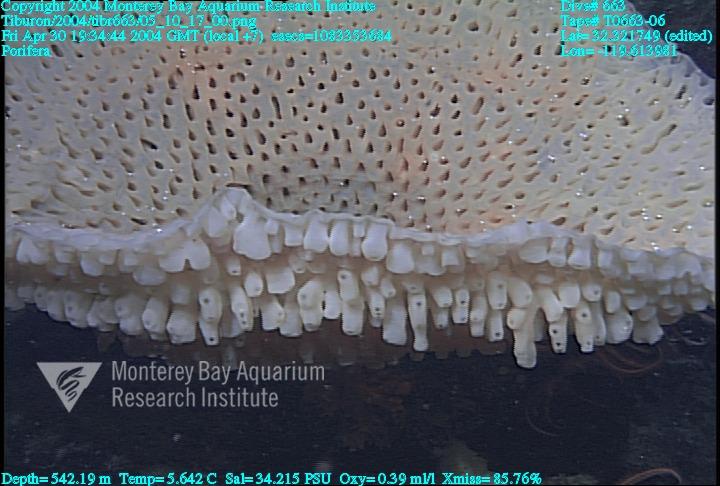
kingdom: Animalia
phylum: Porifera
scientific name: Porifera
